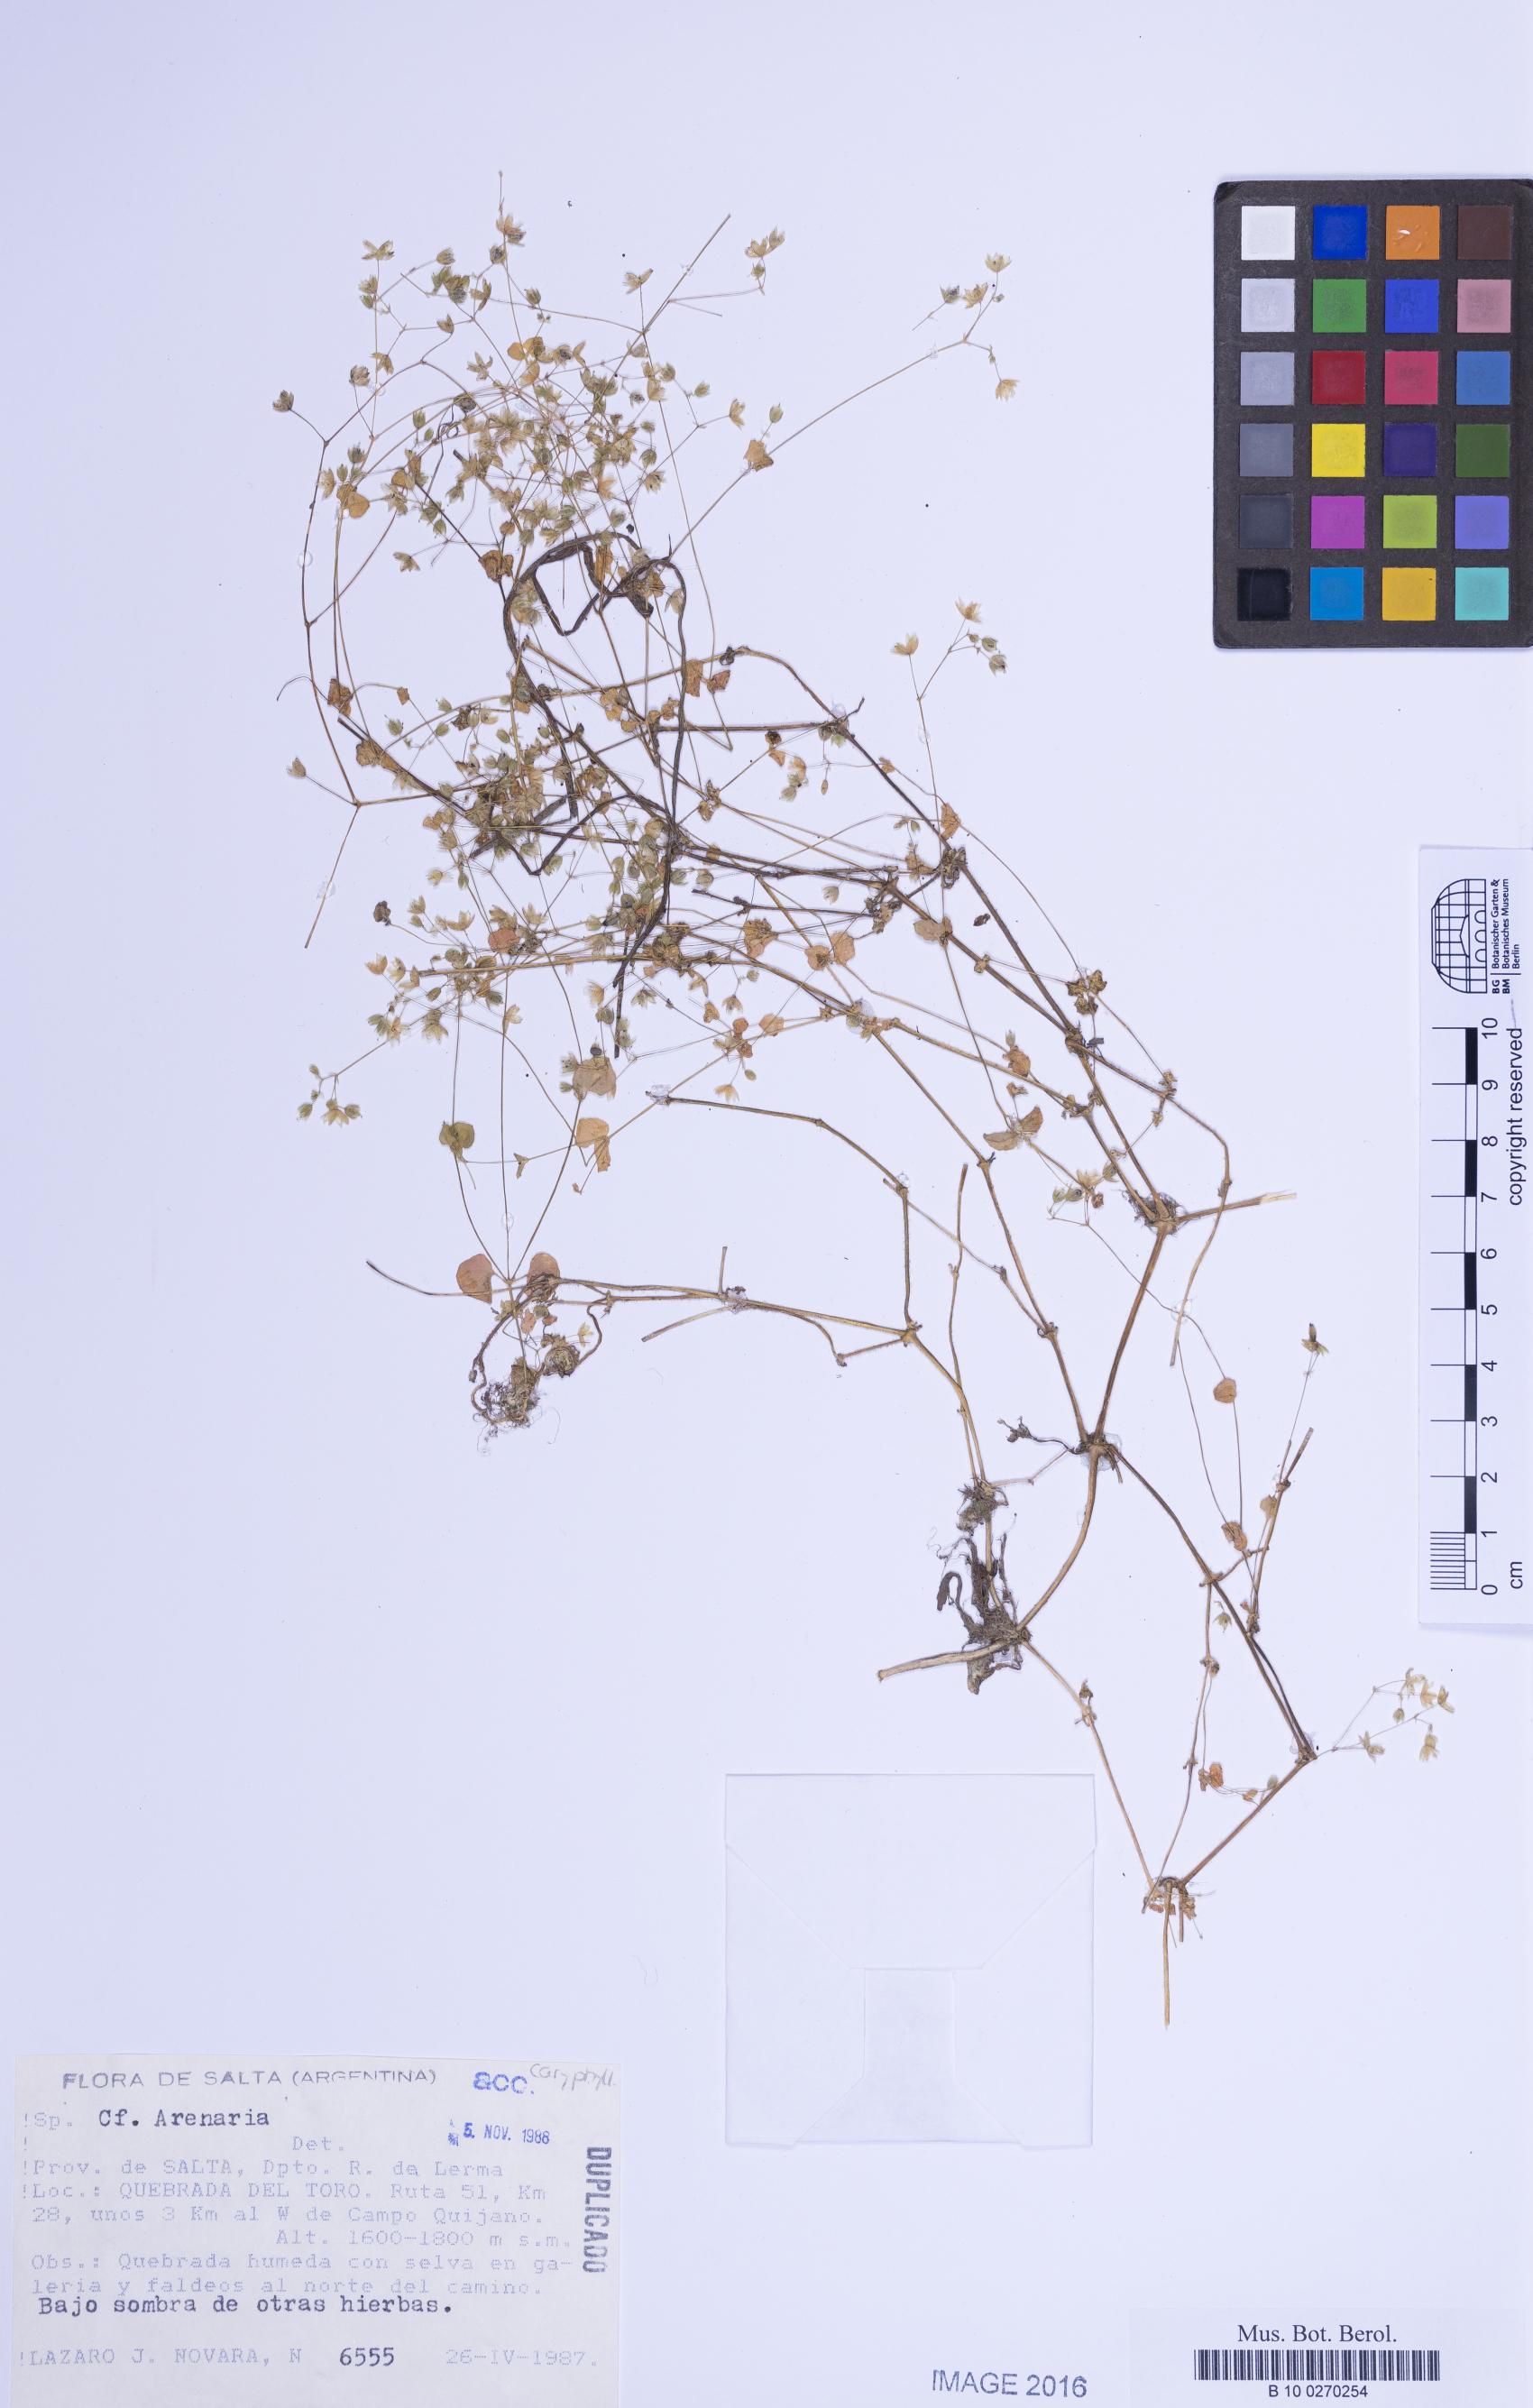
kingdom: Plantae
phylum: Tracheophyta
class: Magnoliopsida
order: Caryophyllales
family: Caryophyllaceae
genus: Drymaria
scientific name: Drymaria
